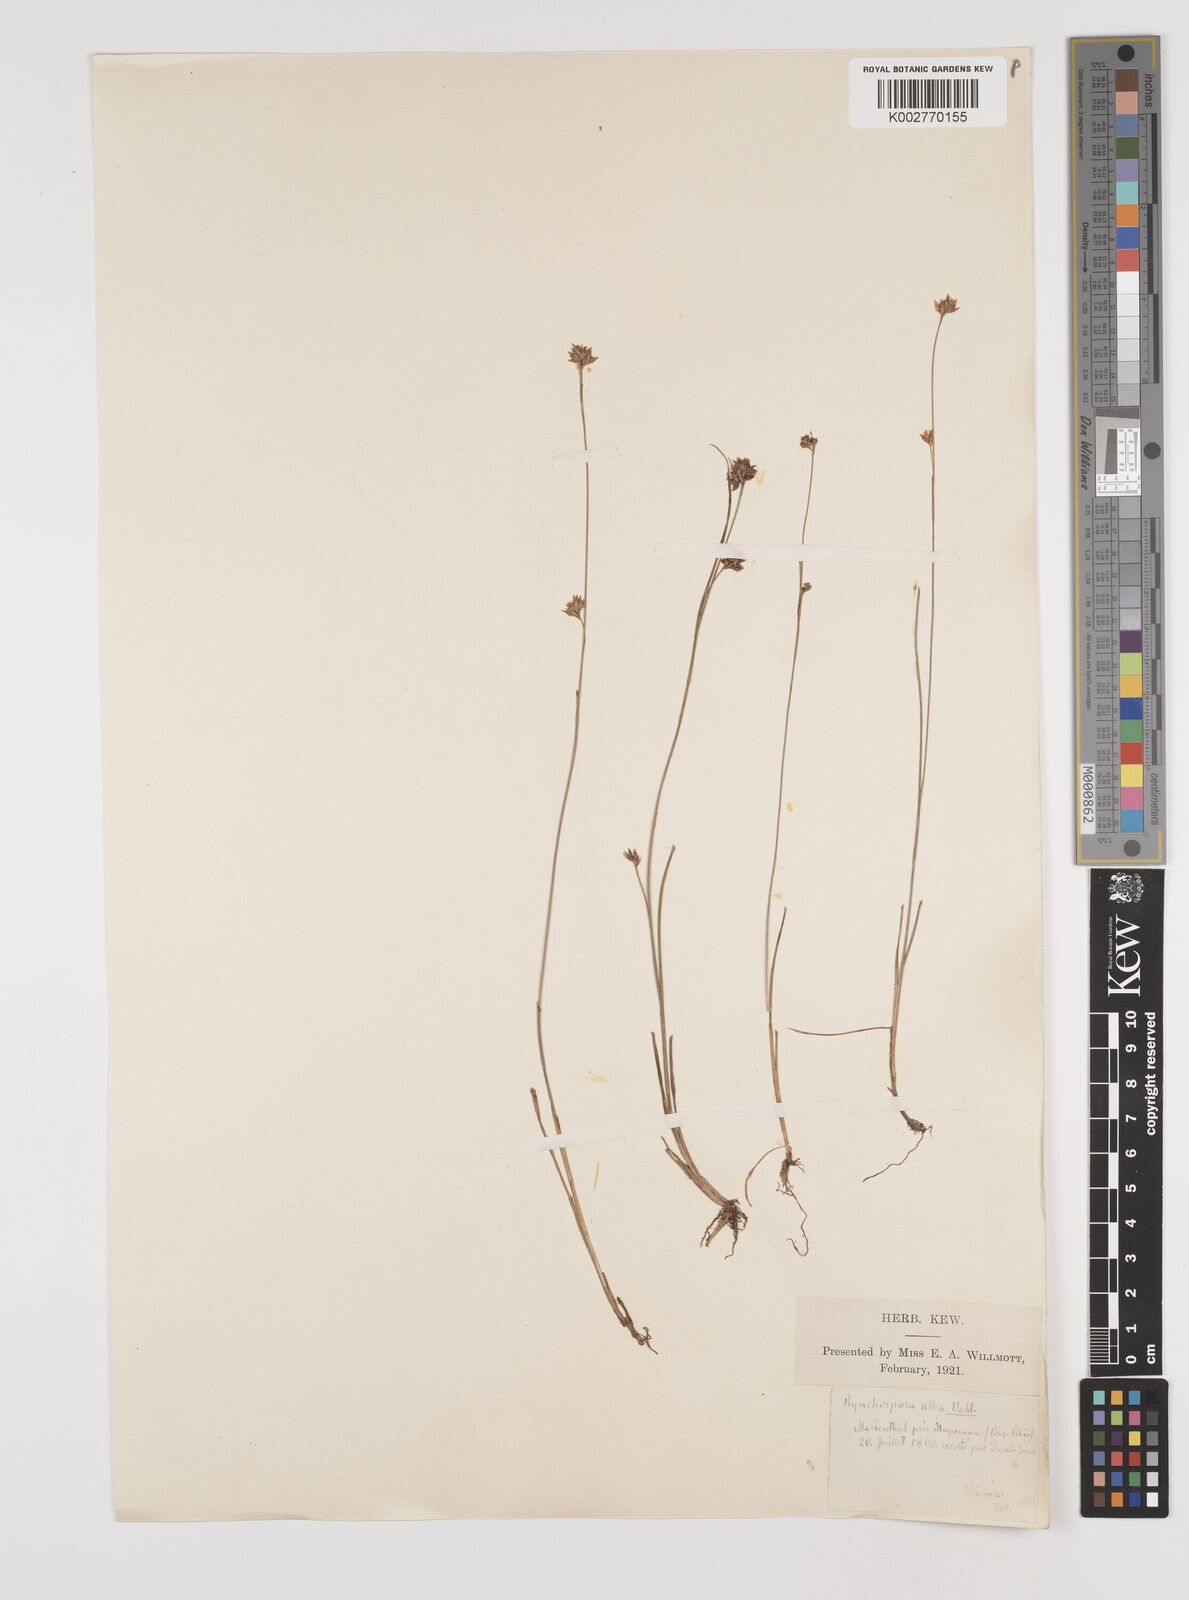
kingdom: Plantae
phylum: Tracheophyta
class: Liliopsida
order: Poales
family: Cyperaceae
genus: Rhynchospora
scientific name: Rhynchospora alba
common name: White beak-sedge
